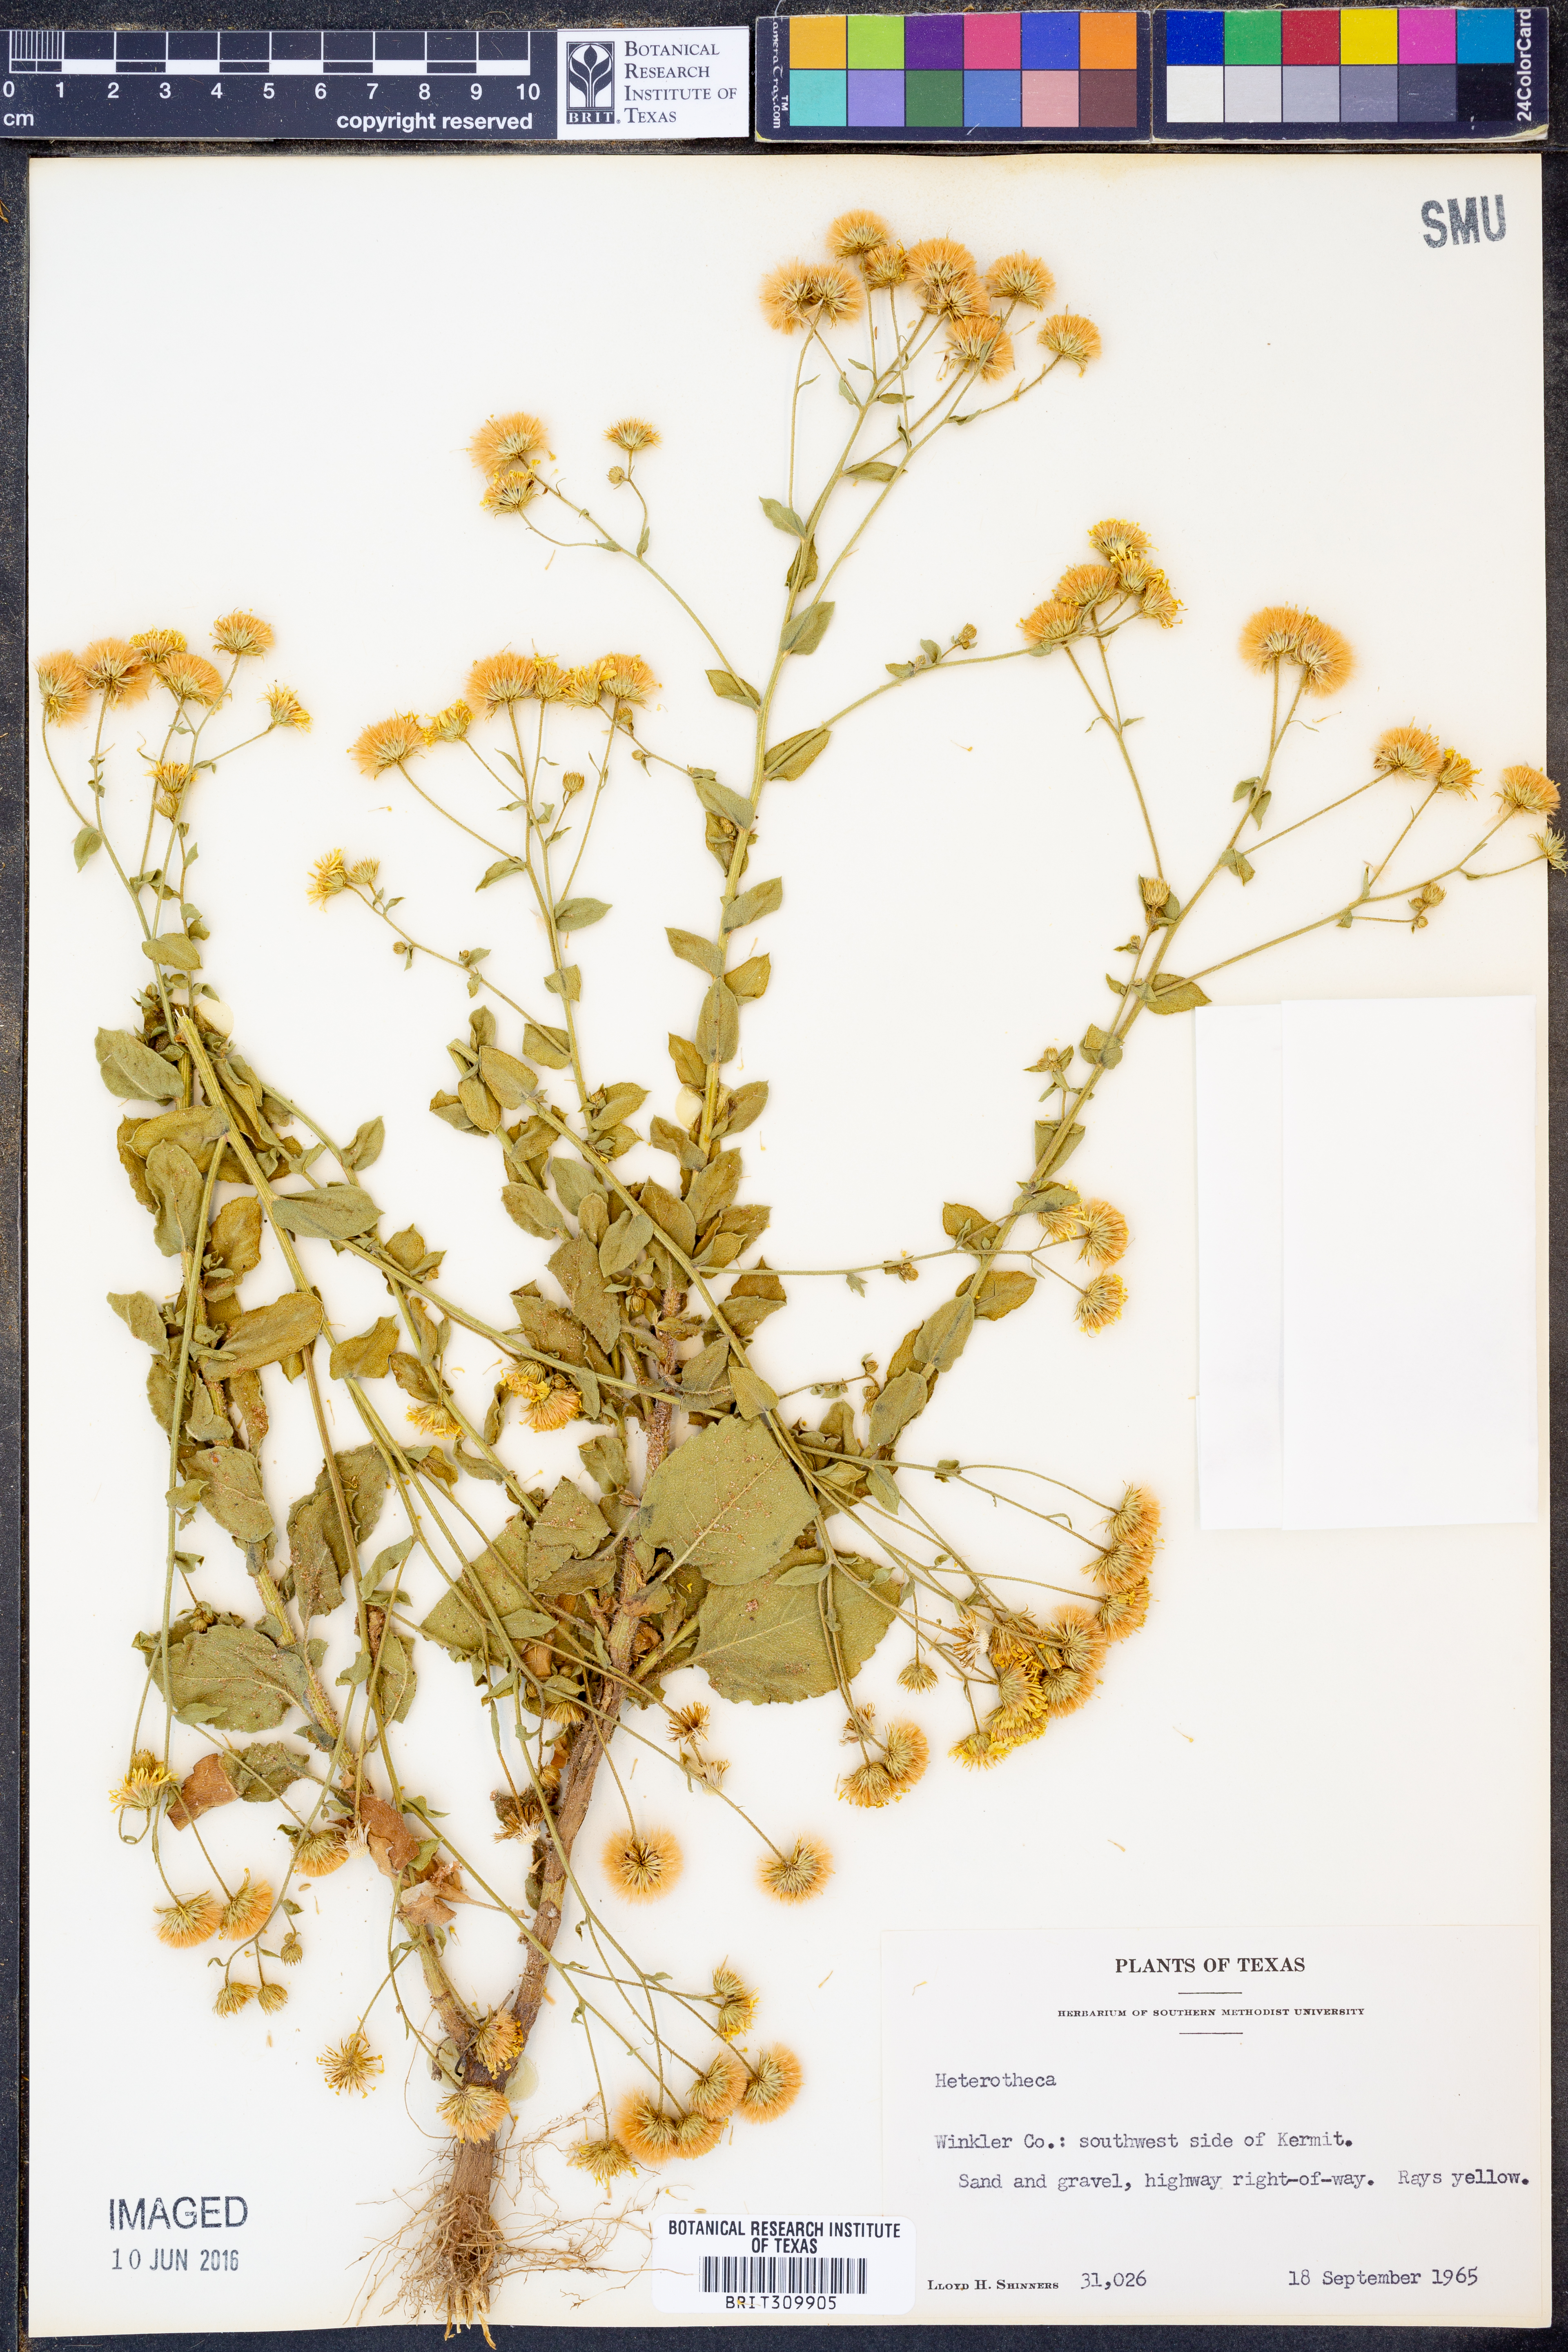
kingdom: Plantae
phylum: Tracheophyta
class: Magnoliopsida
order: Asterales
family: Asteraceae
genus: Heterotheca
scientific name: Heterotheca
